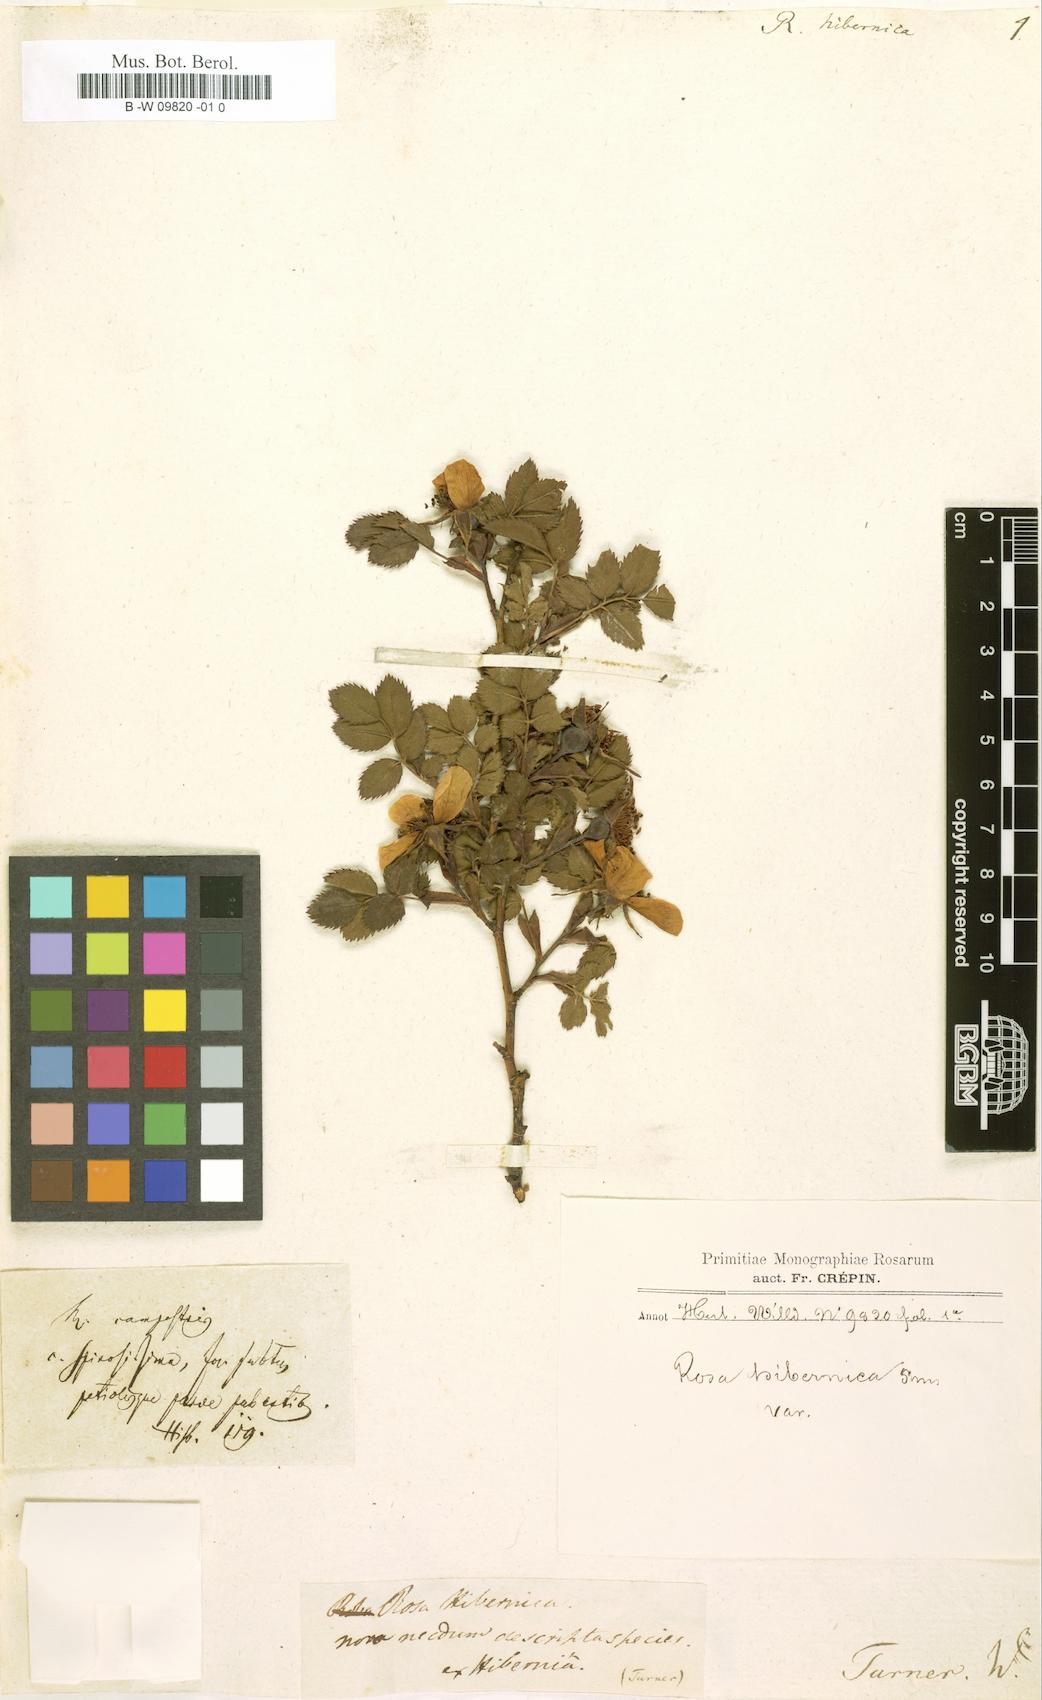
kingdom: Plantae
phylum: Tracheophyta
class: Magnoliopsida
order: Rosales
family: Rosaceae
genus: Rosa
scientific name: Rosa hibernica
